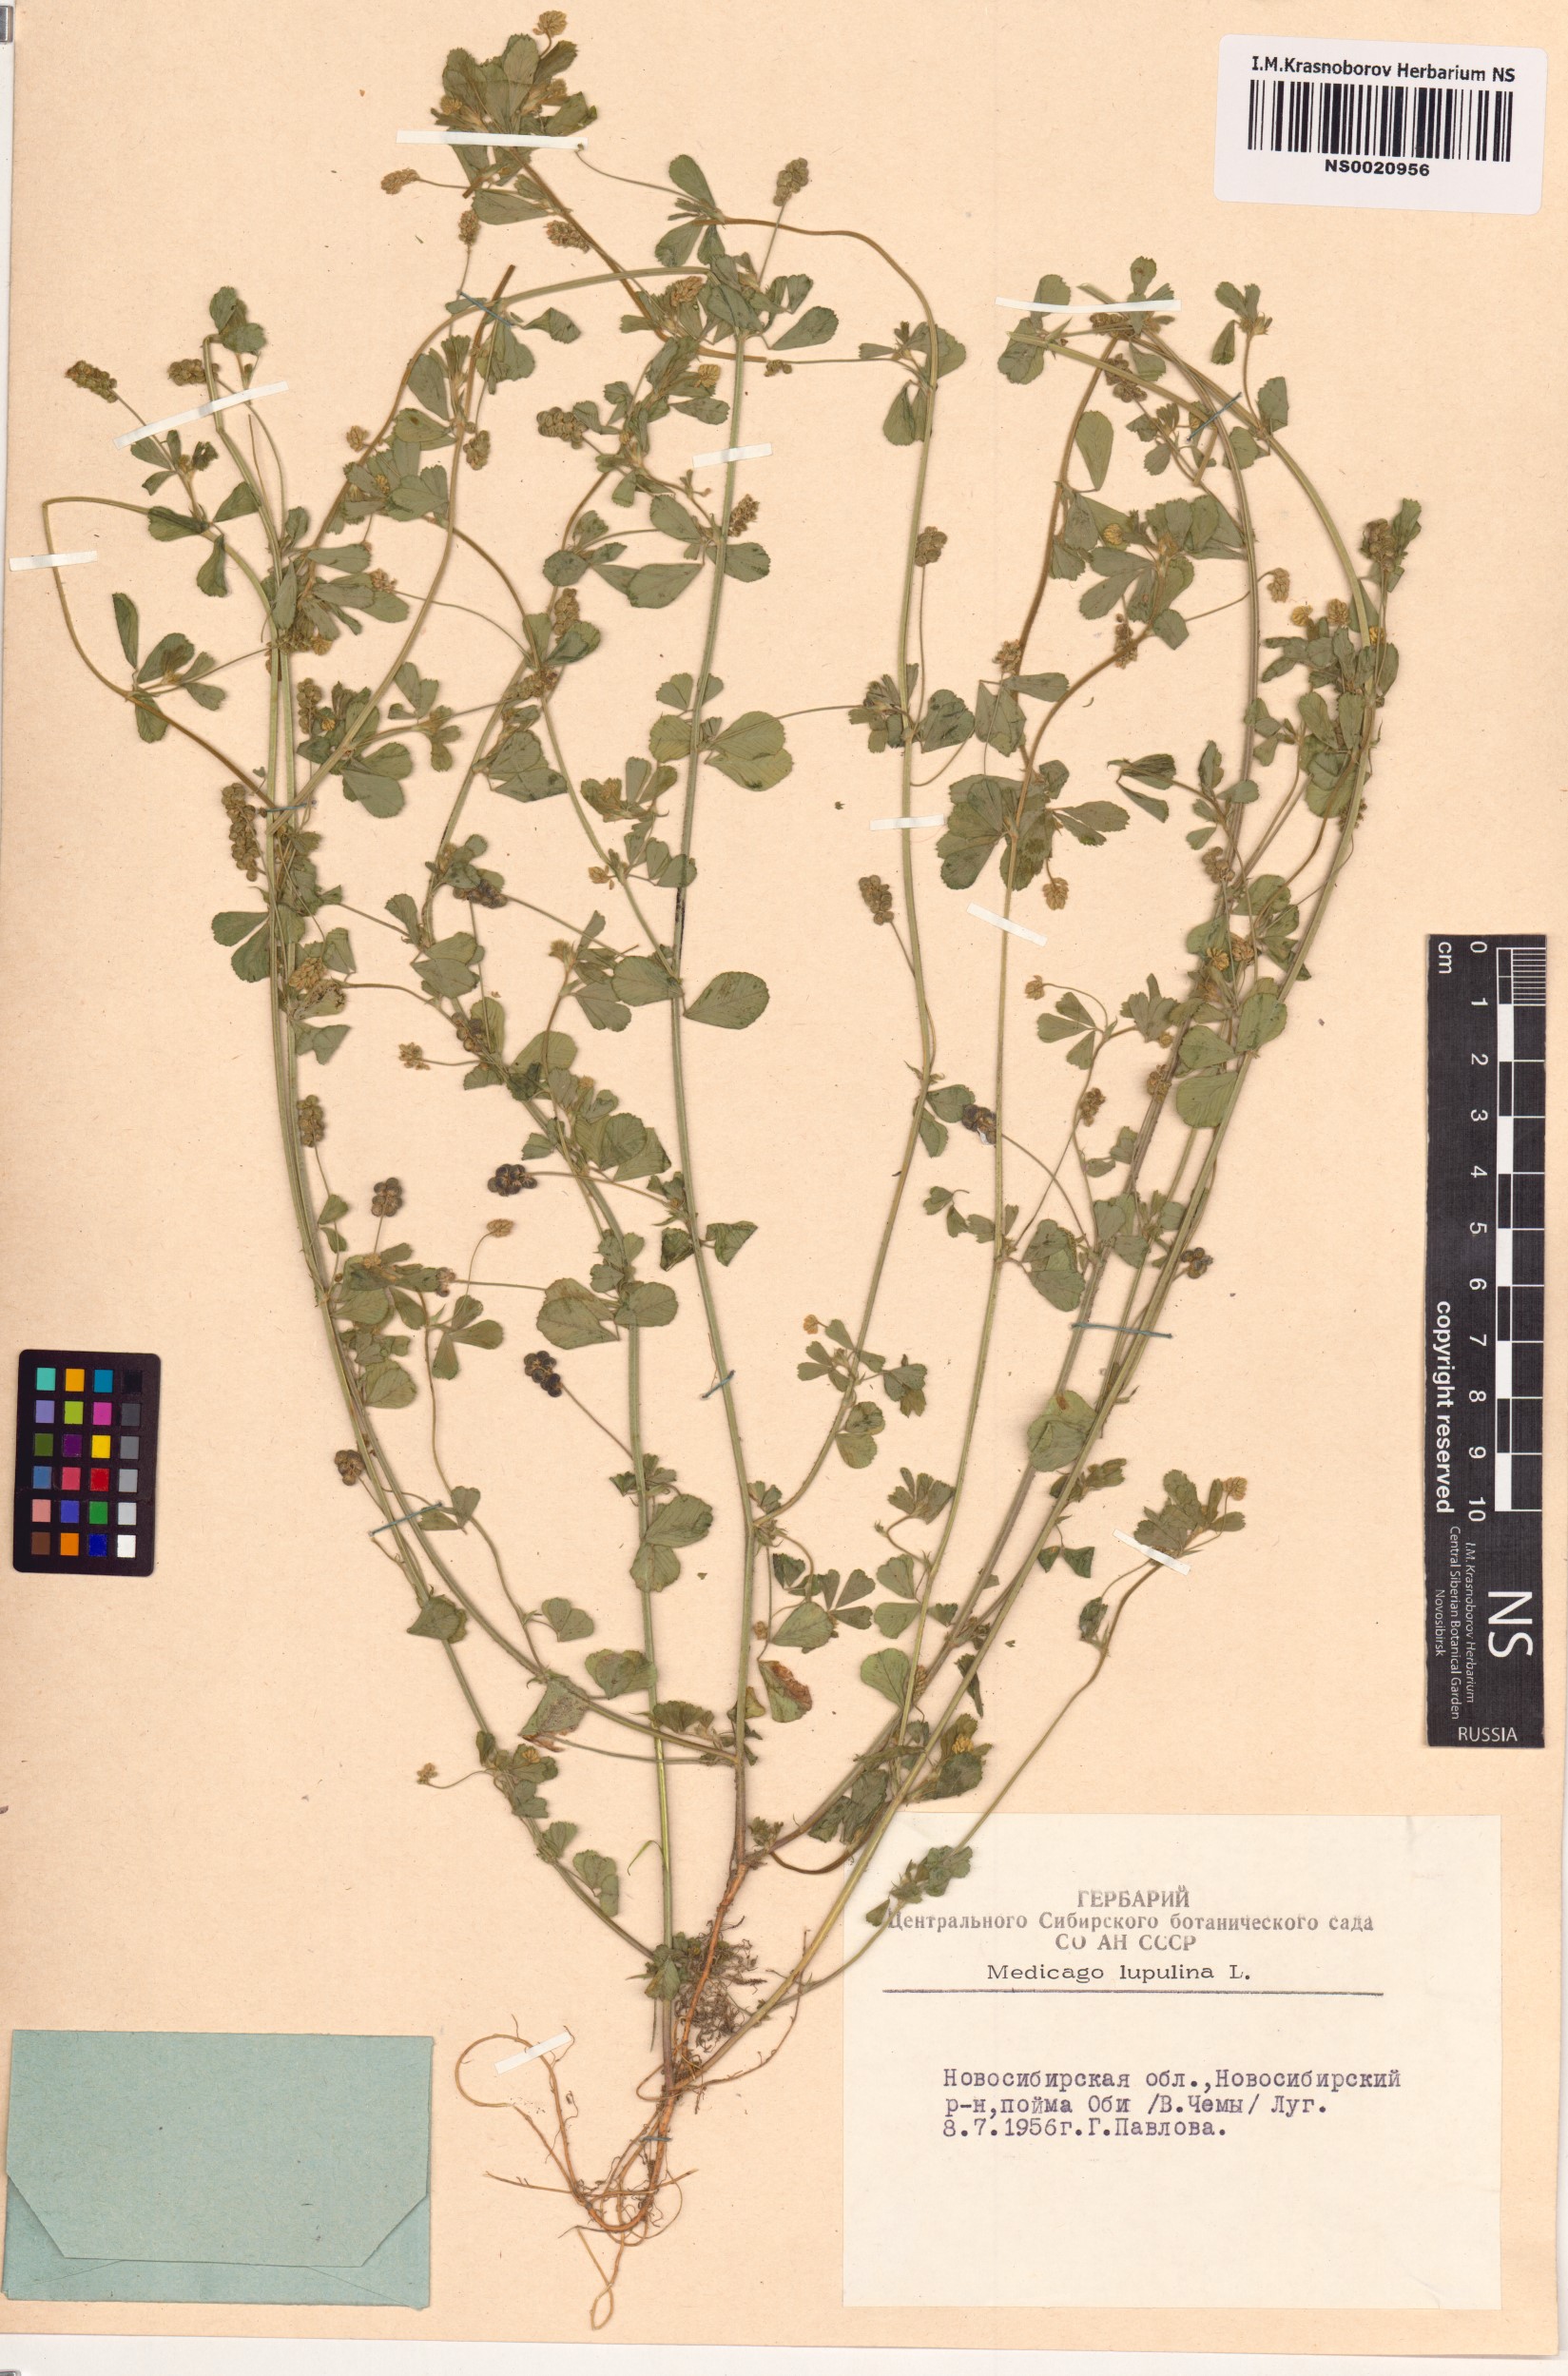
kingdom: Plantae
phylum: Tracheophyta
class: Magnoliopsida
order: Fabales
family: Fabaceae
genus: Medicago
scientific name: Medicago lupulina
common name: Black medick
